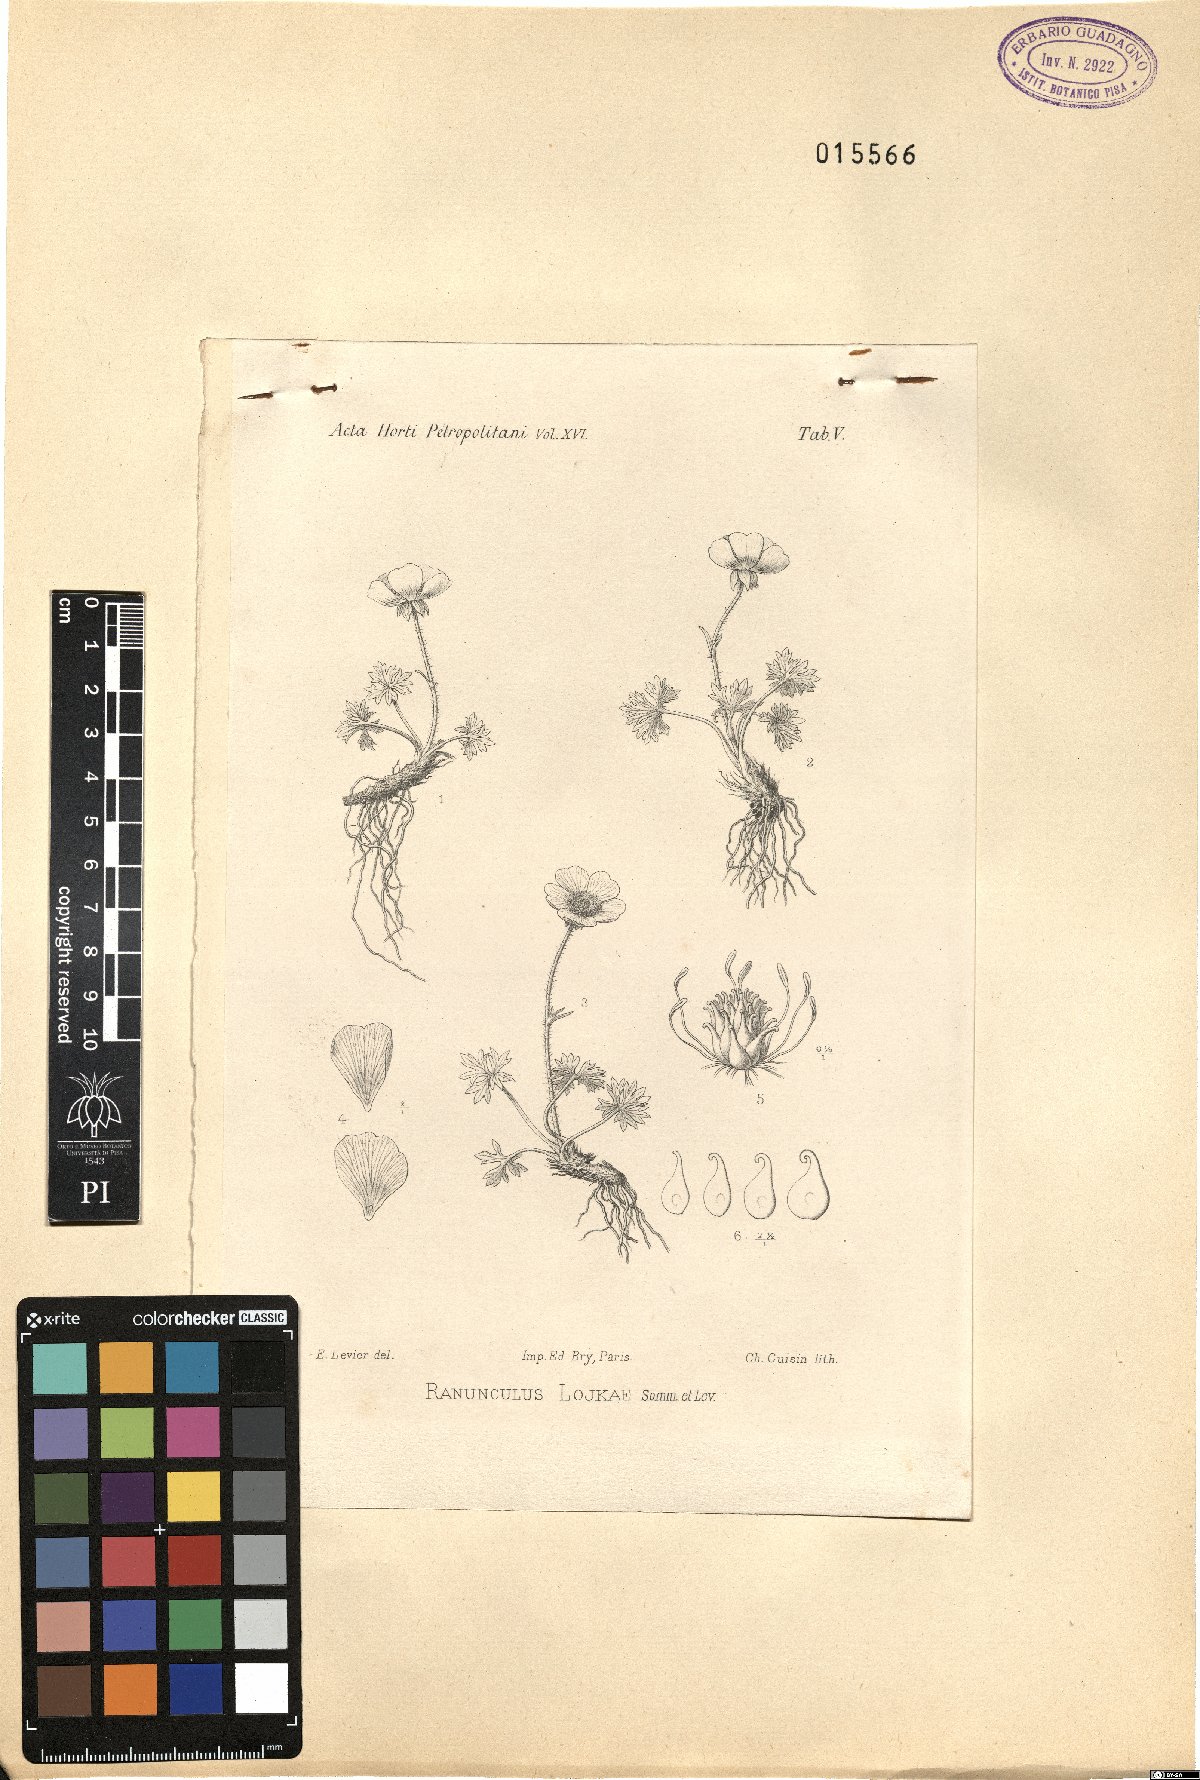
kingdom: Plantae
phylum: Tracheophyta
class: Magnoliopsida
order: Ranunculales
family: Ranunculaceae
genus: Ranunculus
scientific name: Ranunculus lojkae
